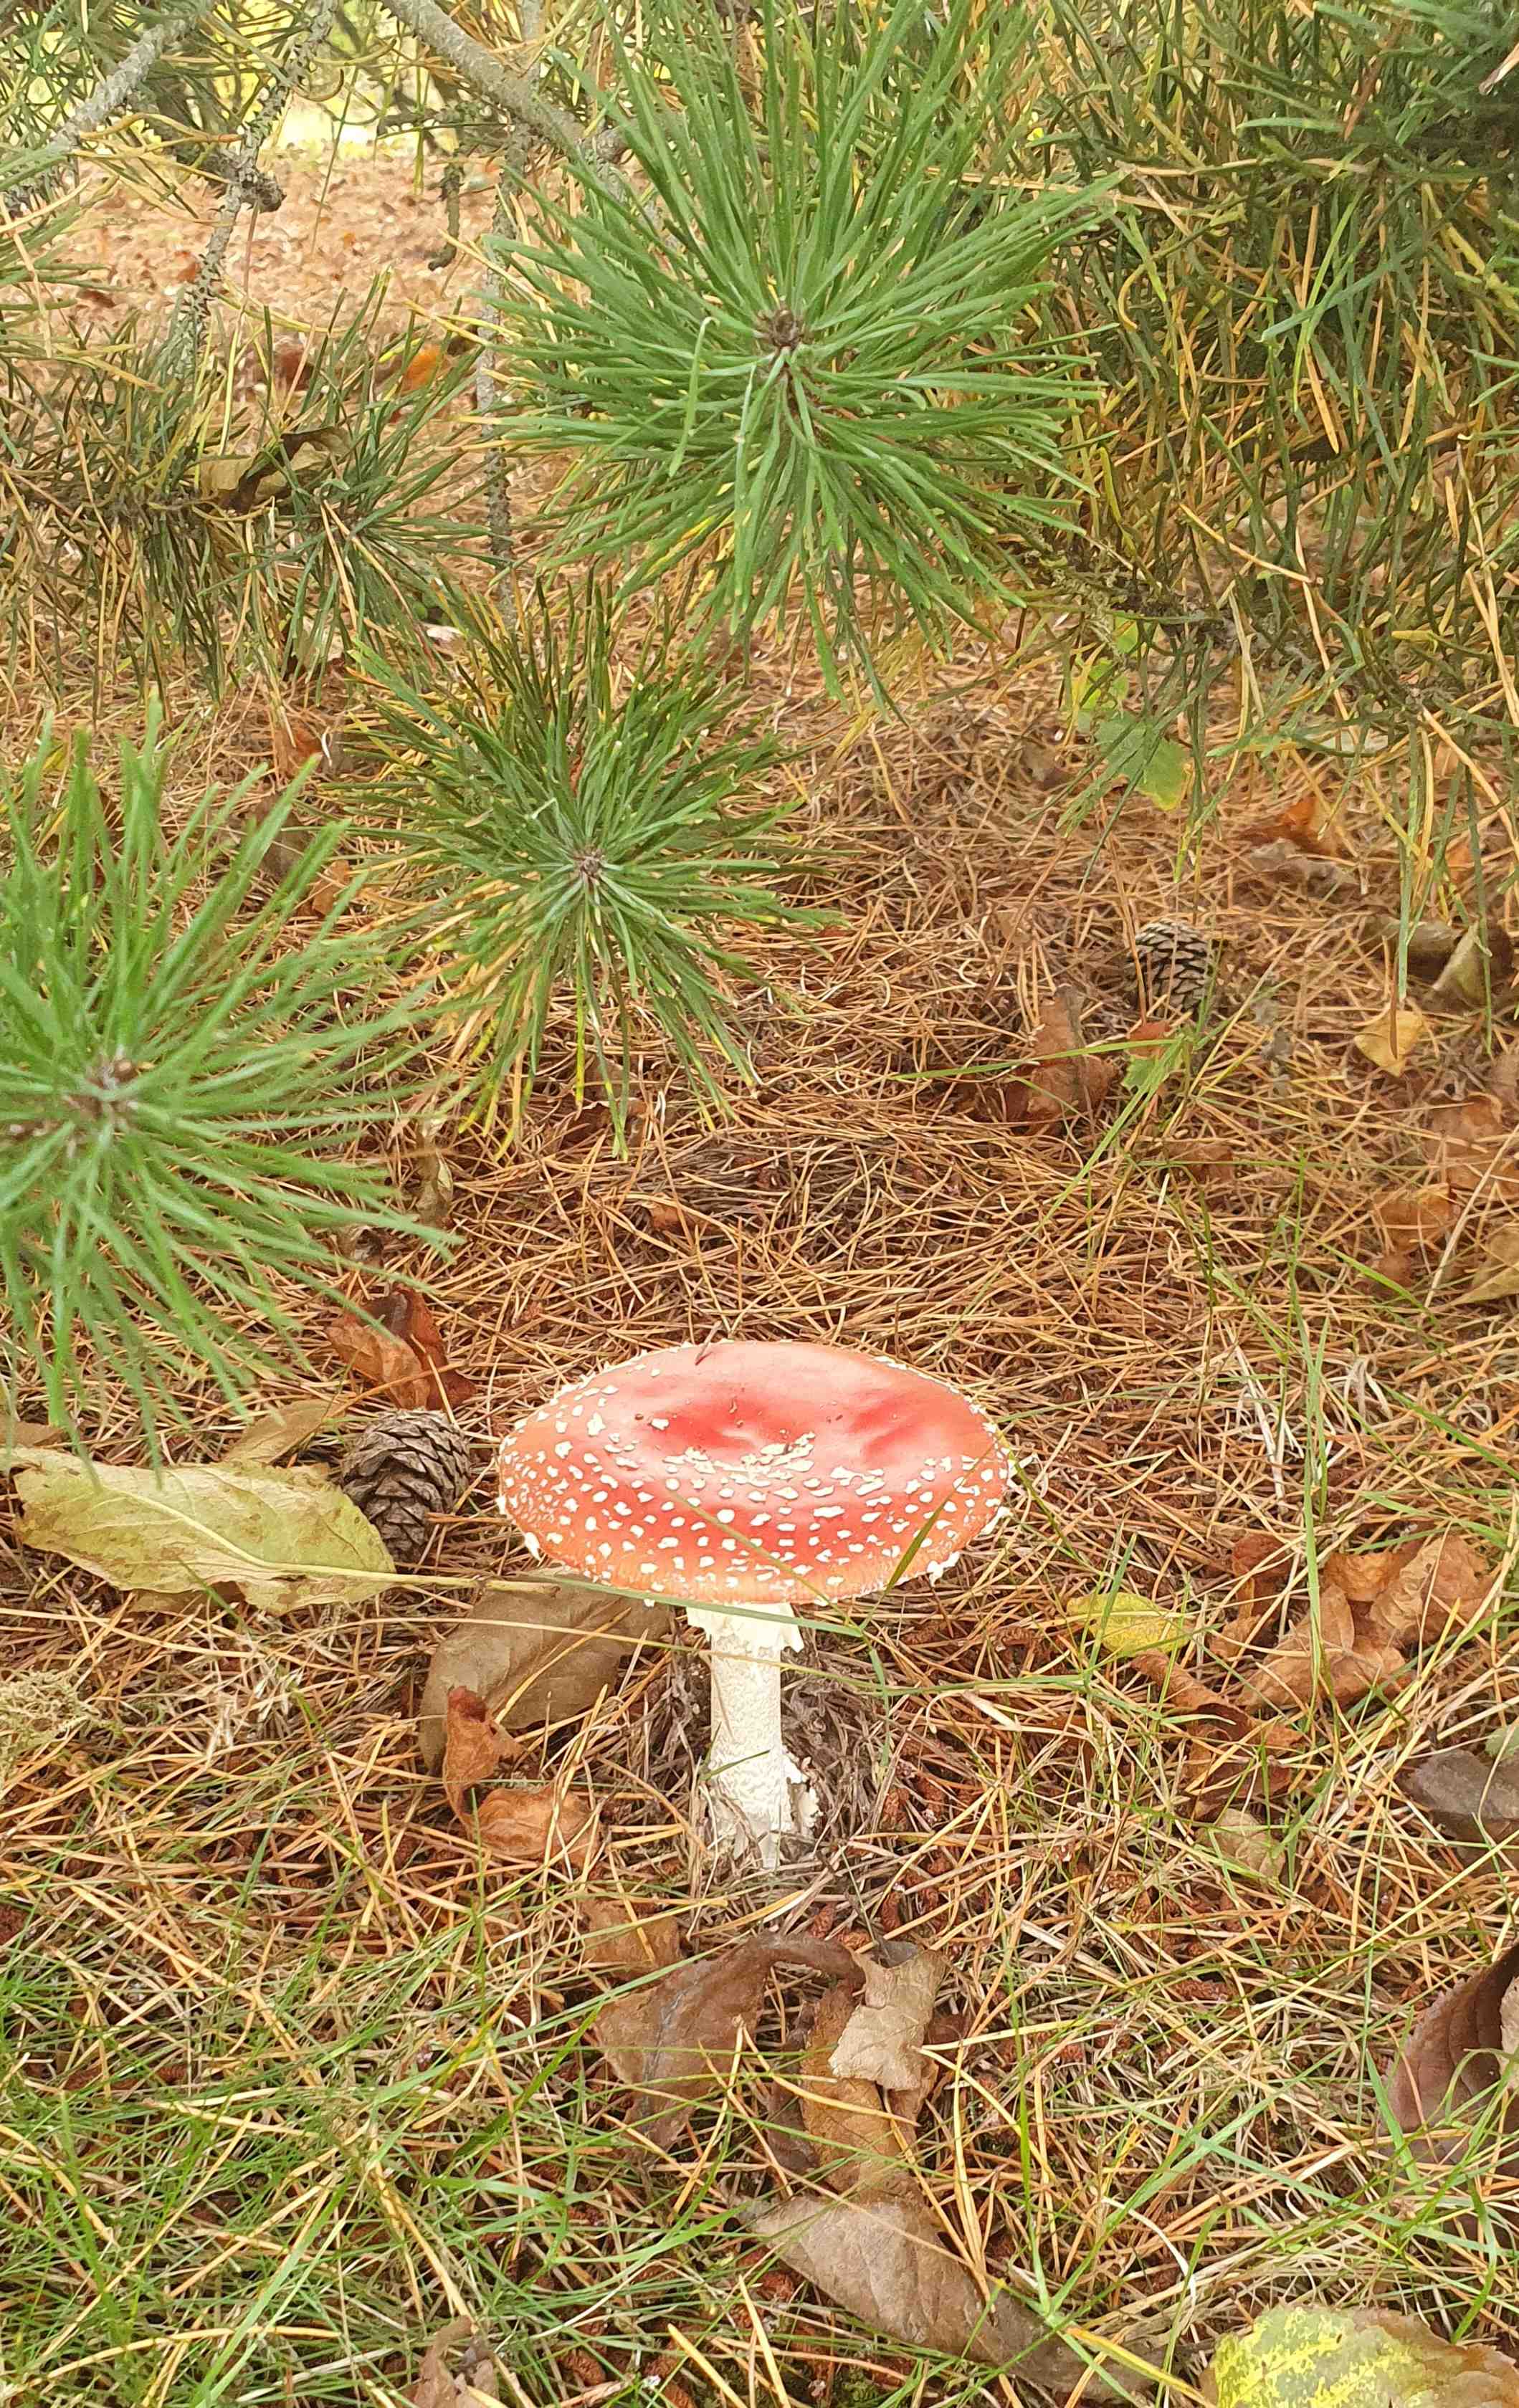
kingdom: Fungi
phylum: Basidiomycota
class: Agaricomycetes
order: Agaricales
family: Amanitaceae
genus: Amanita
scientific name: Amanita muscaria
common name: rød fluesvamp
